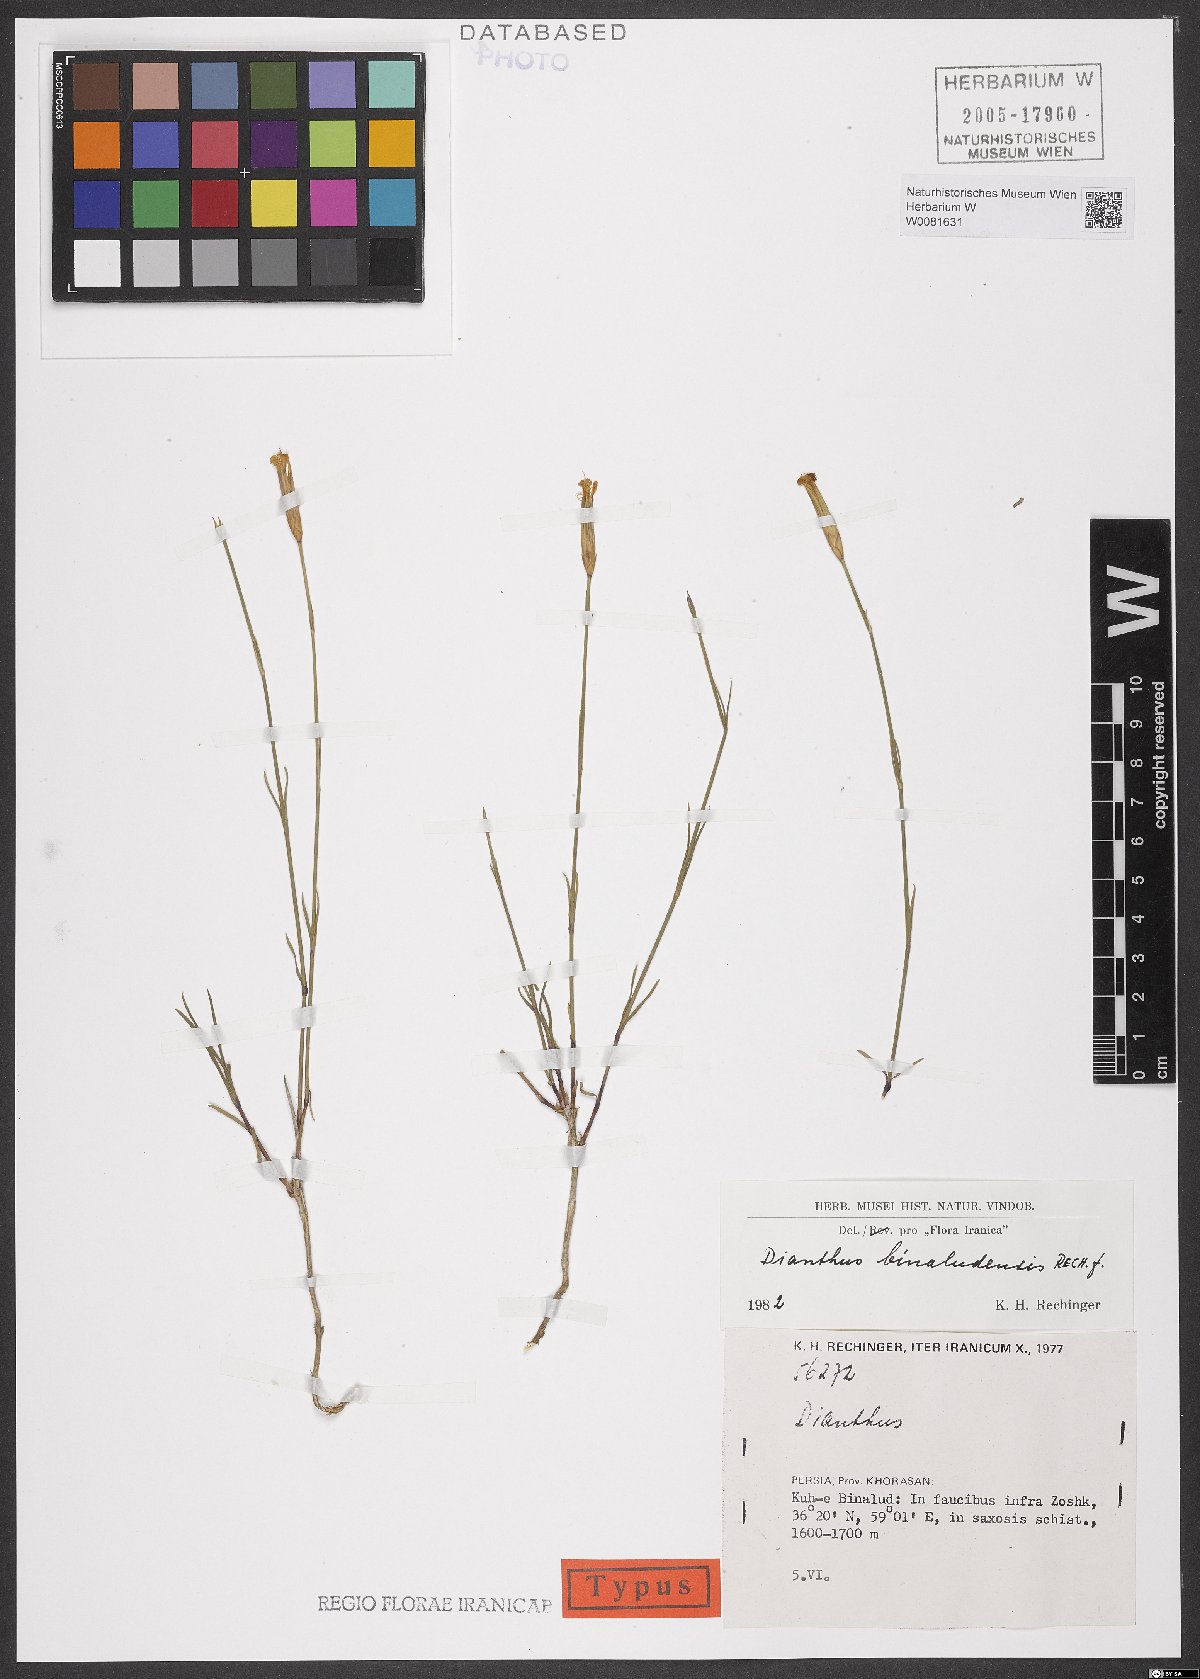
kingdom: Plantae
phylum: Tracheophyta
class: Magnoliopsida
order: Caryophyllales
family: Caryophyllaceae
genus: Dianthus
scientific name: Dianthus polylepis
